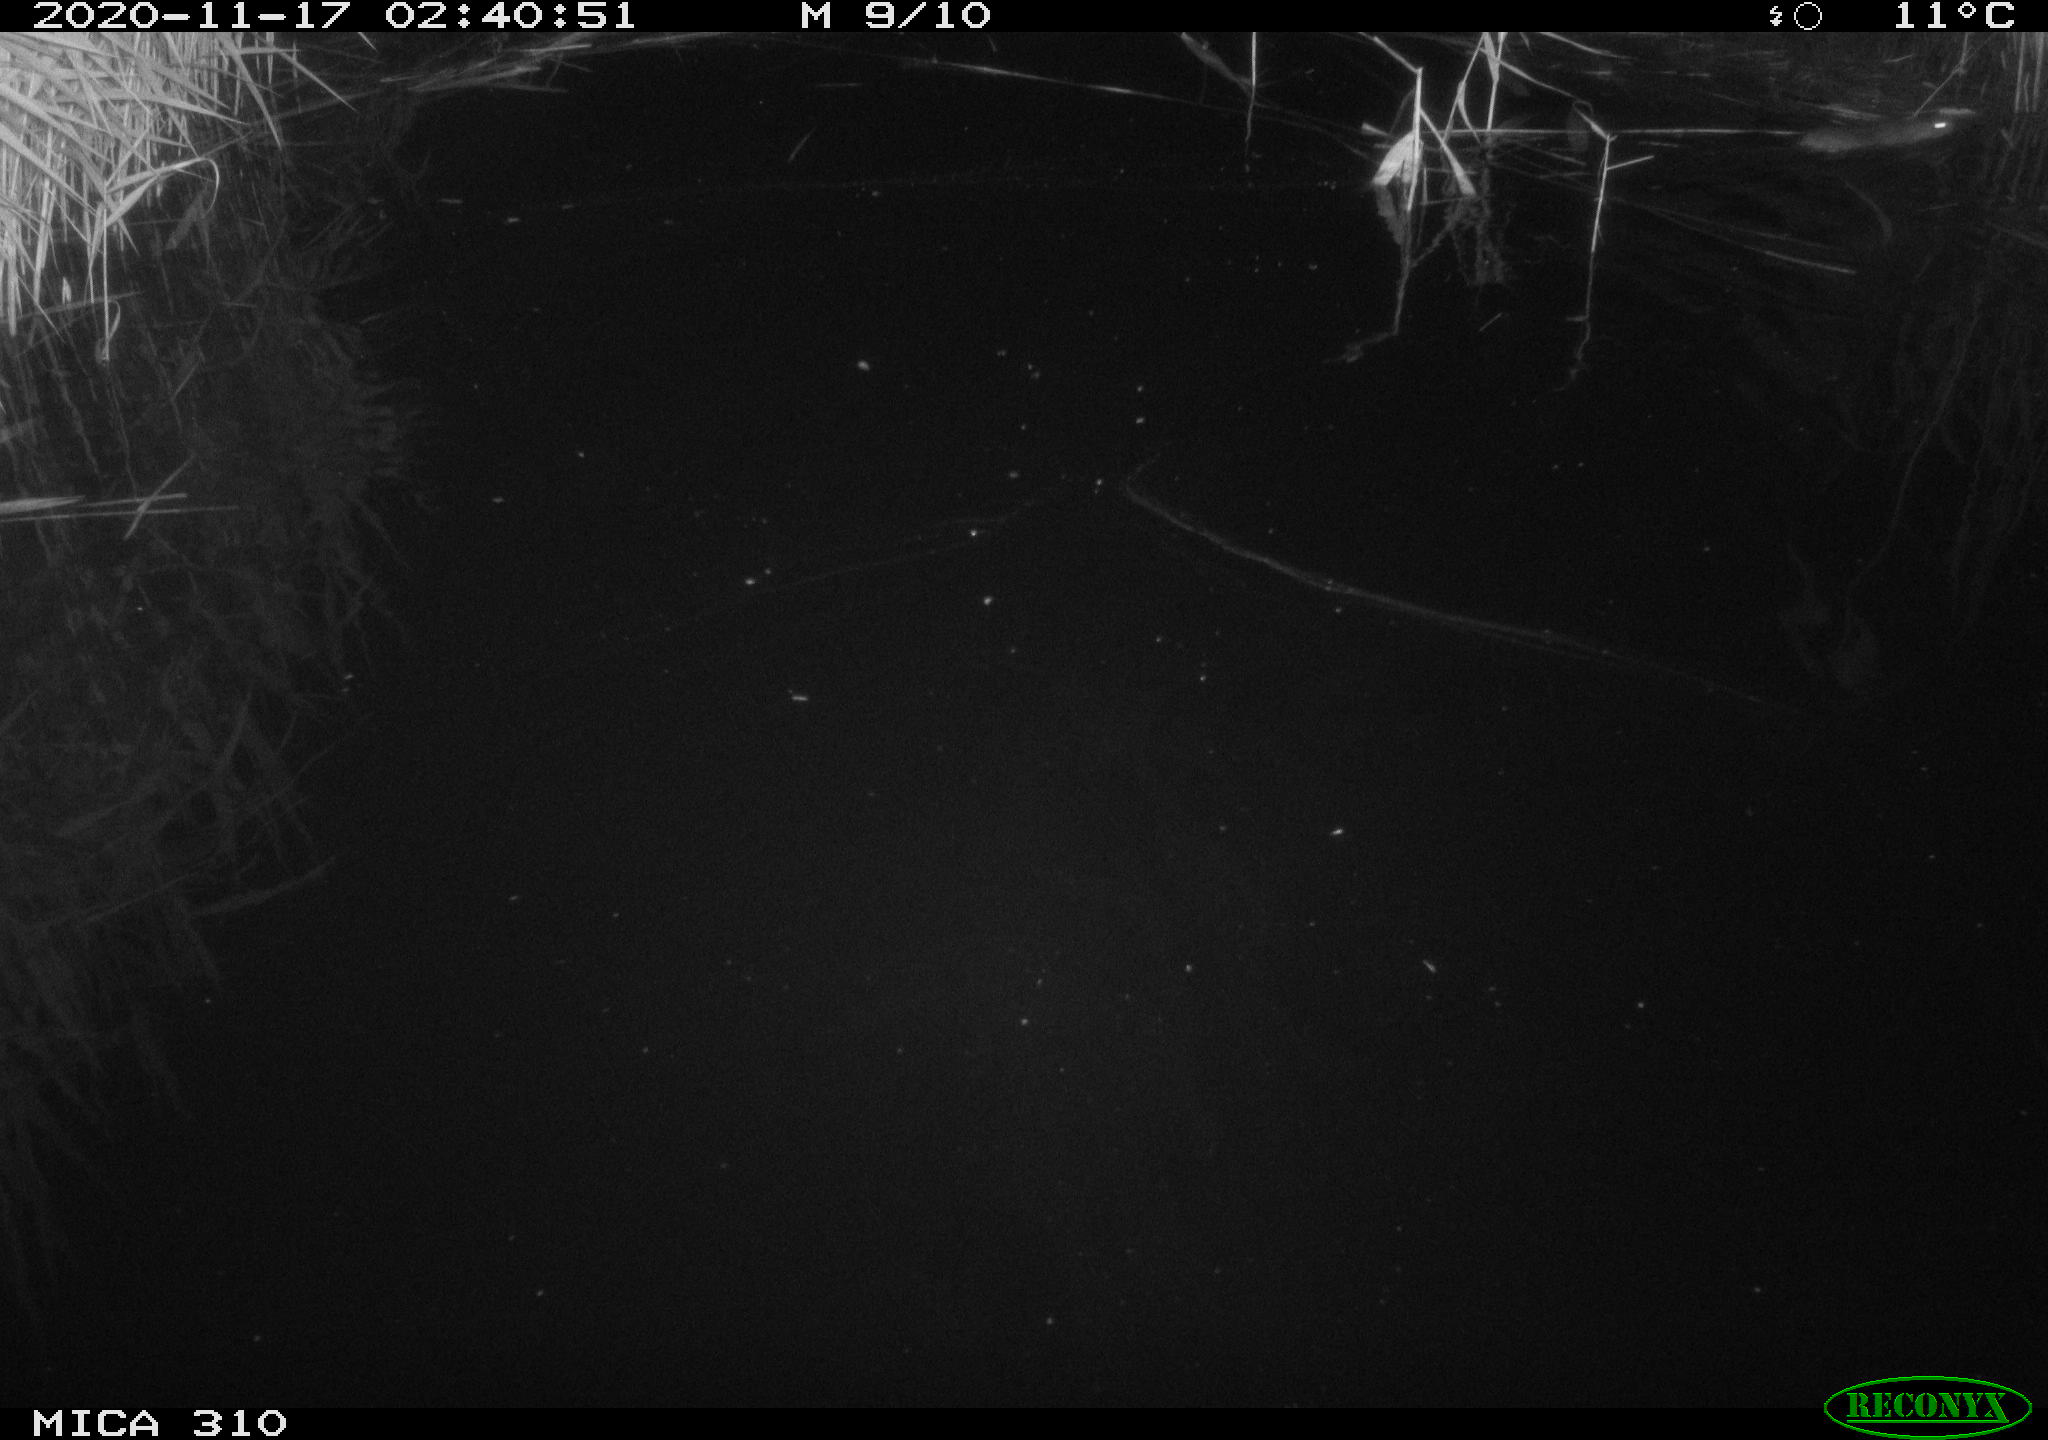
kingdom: Animalia
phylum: Chordata
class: Mammalia
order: Rodentia
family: Muridae
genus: Rattus
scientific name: Rattus norvegicus
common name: Brown rat
